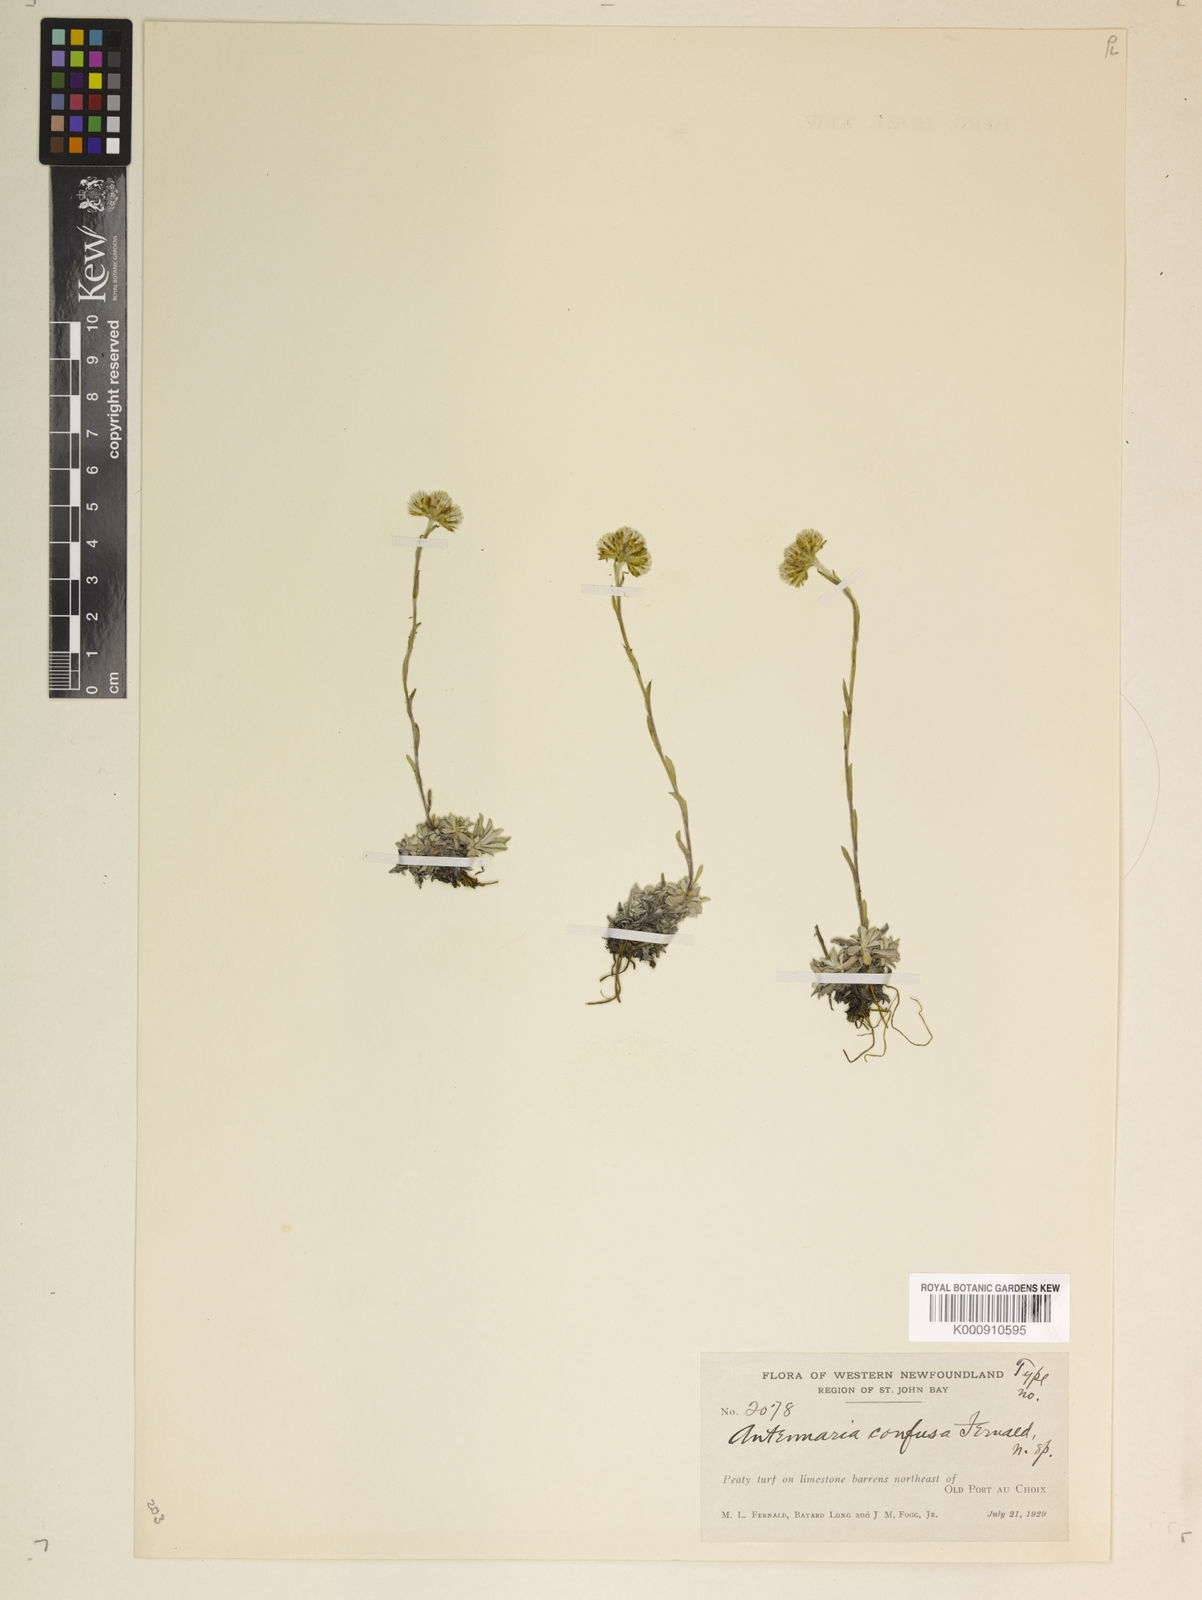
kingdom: Plantae
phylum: Tracheophyta
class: Magnoliopsida
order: Asterales
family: Asteraceae
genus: Antennaria
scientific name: Antennaria alpina
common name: Alpine pussytoes
